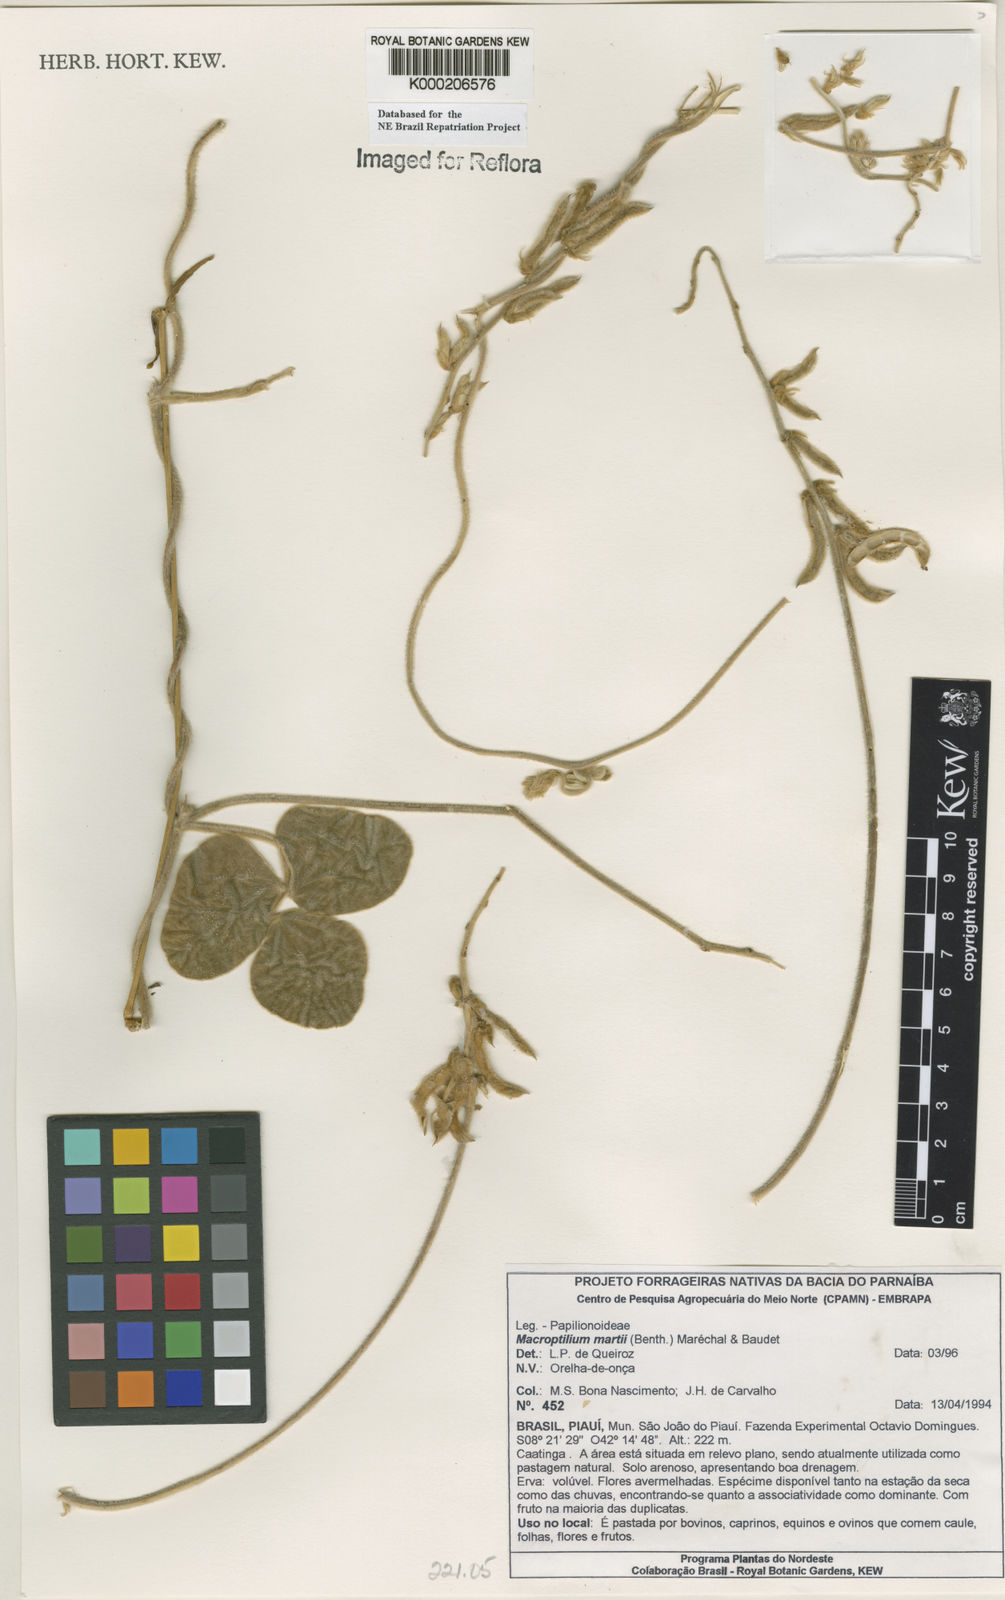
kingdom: Plantae
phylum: Tracheophyta
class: Magnoliopsida
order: Fabales
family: Fabaceae
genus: Macroptilium
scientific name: Macroptilium
